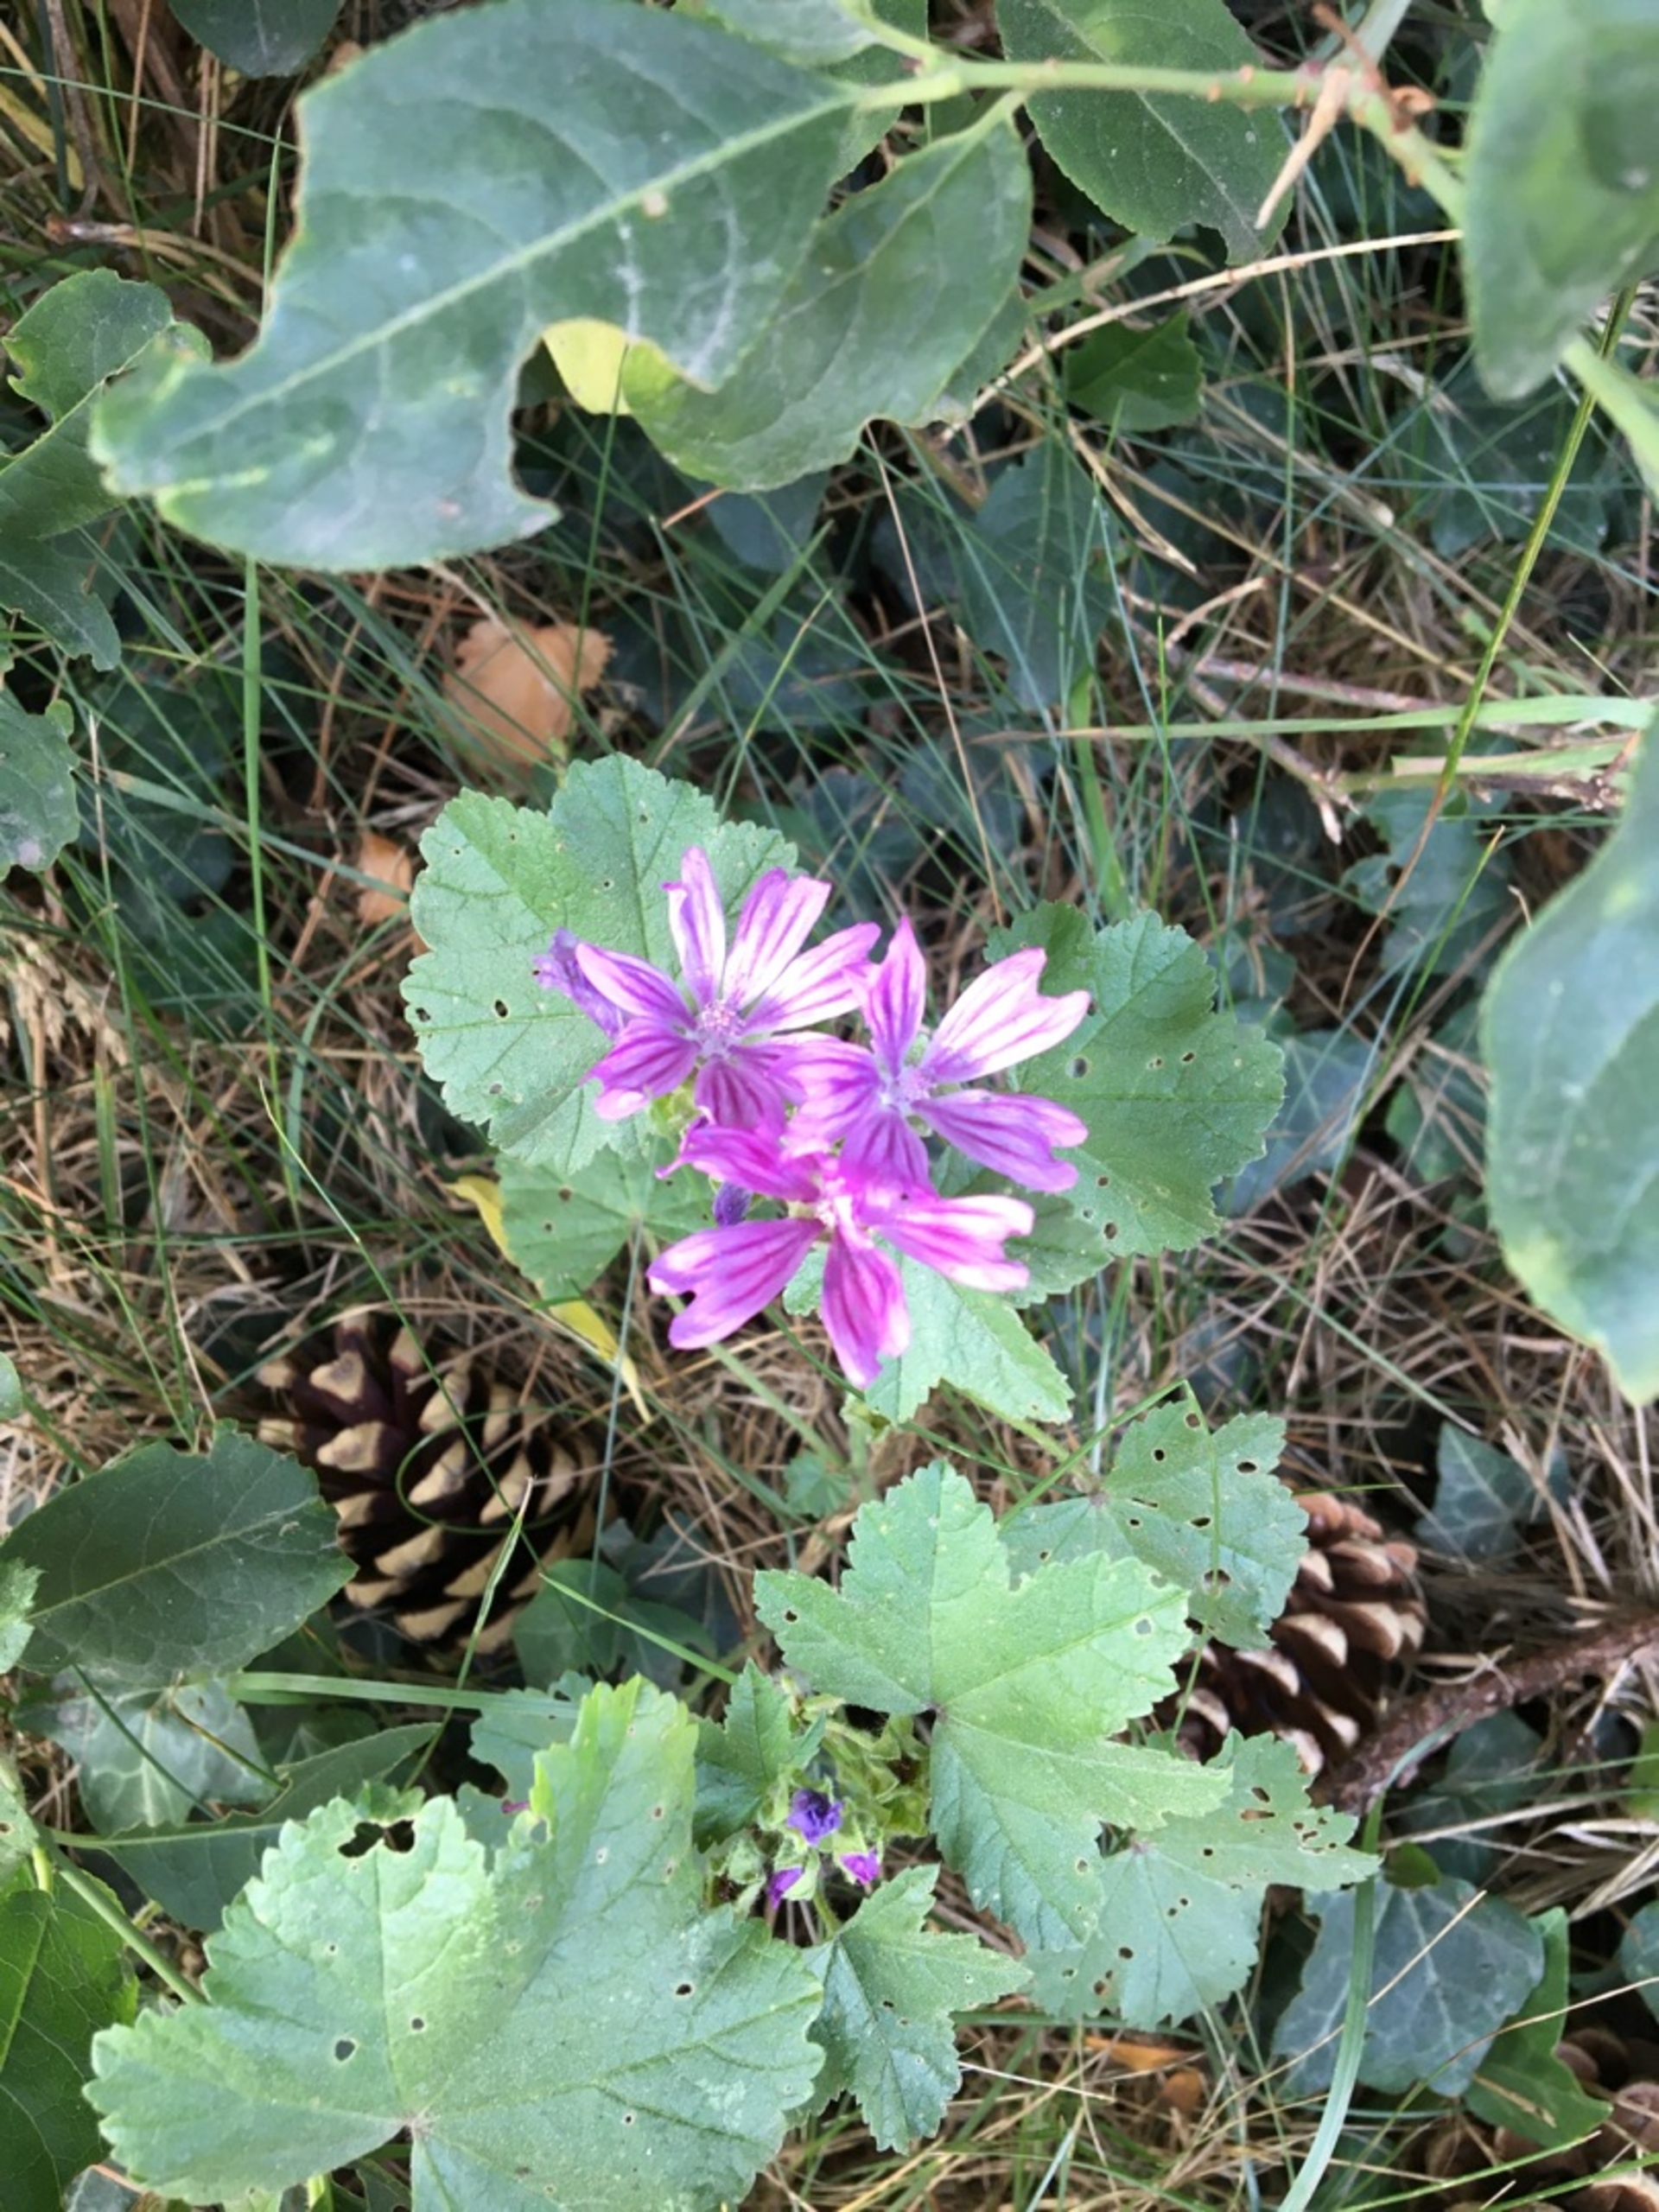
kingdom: Plantae
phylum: Tracheophyta
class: Magnoliopsida
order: Malvales
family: Malvaceae
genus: Malva
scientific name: Malva sylvestris
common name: Almindelig katost
